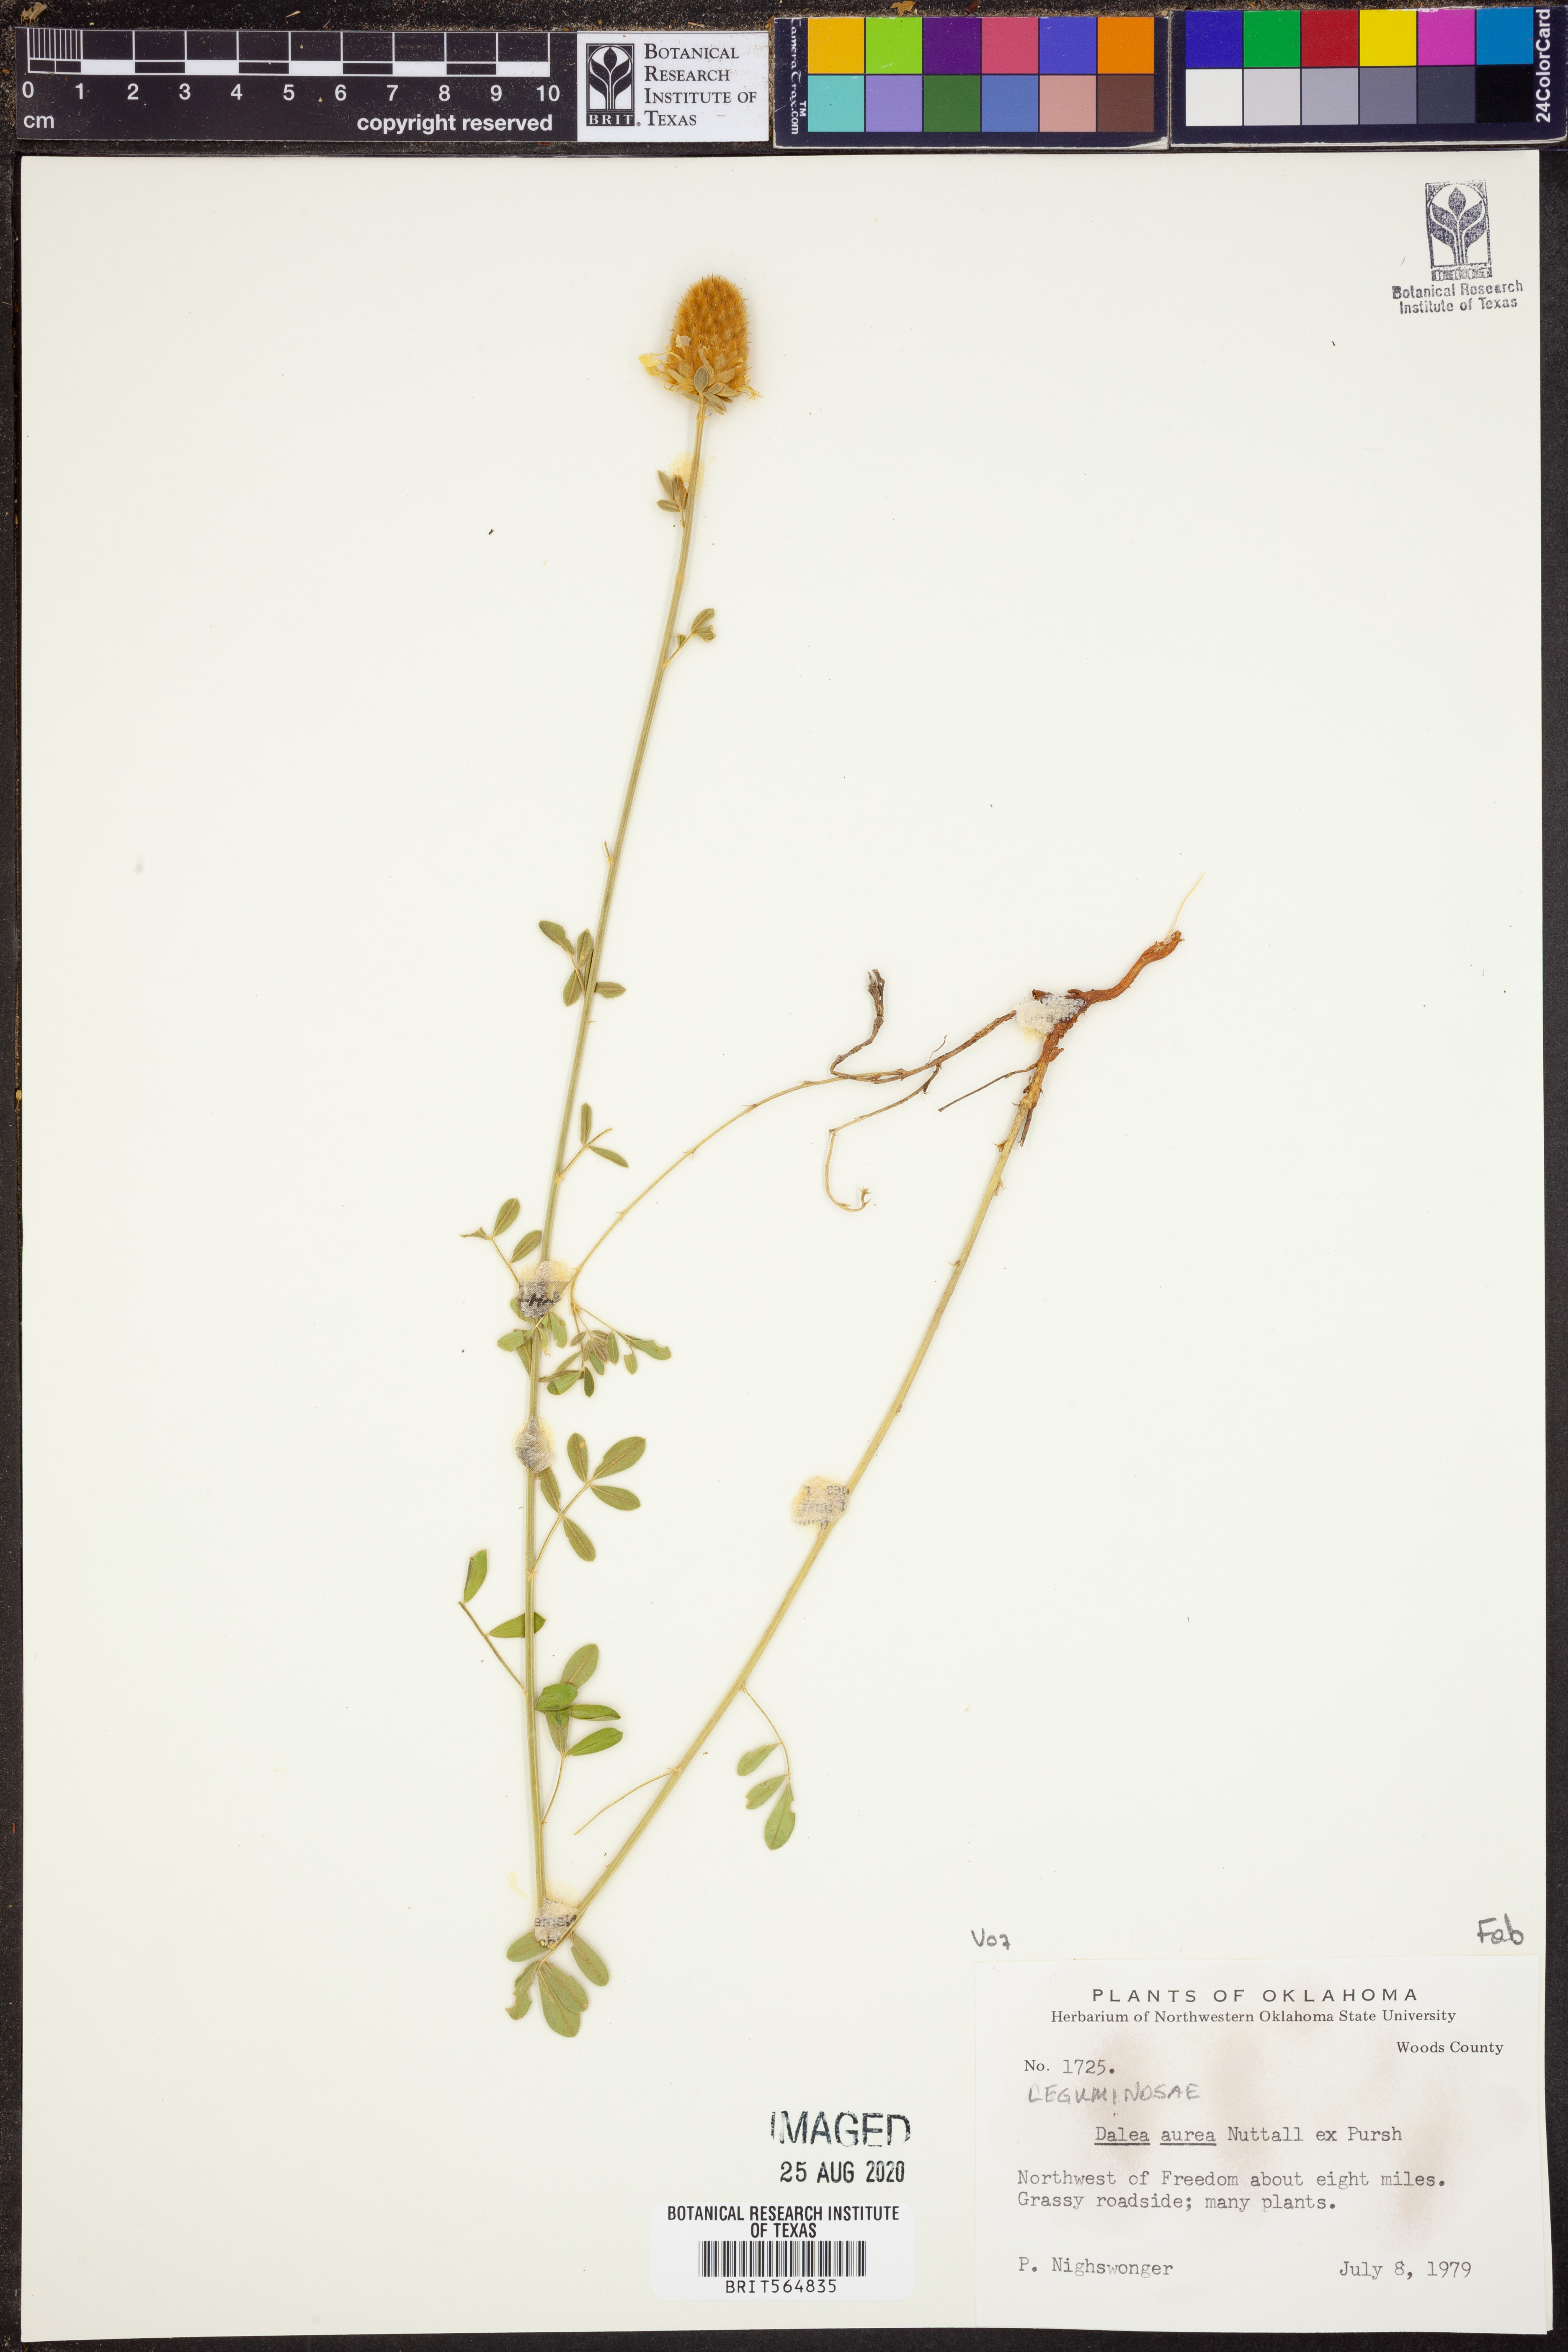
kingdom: Plantae
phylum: Tracheophyta
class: Magnoliopsida
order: Fabales
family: Fabaceae
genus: Dalea
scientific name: Dalea aurea
